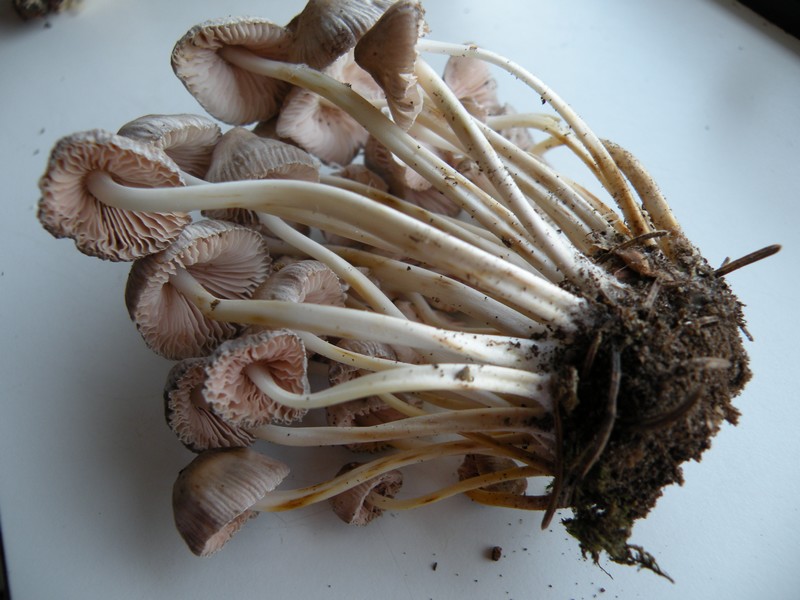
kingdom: Fungi
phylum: Basidiomycota
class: Agaricomycetes
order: Agaricales
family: Mycenaceae
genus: Mycena
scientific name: Mycena inclinata
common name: nikkende huesvamp
